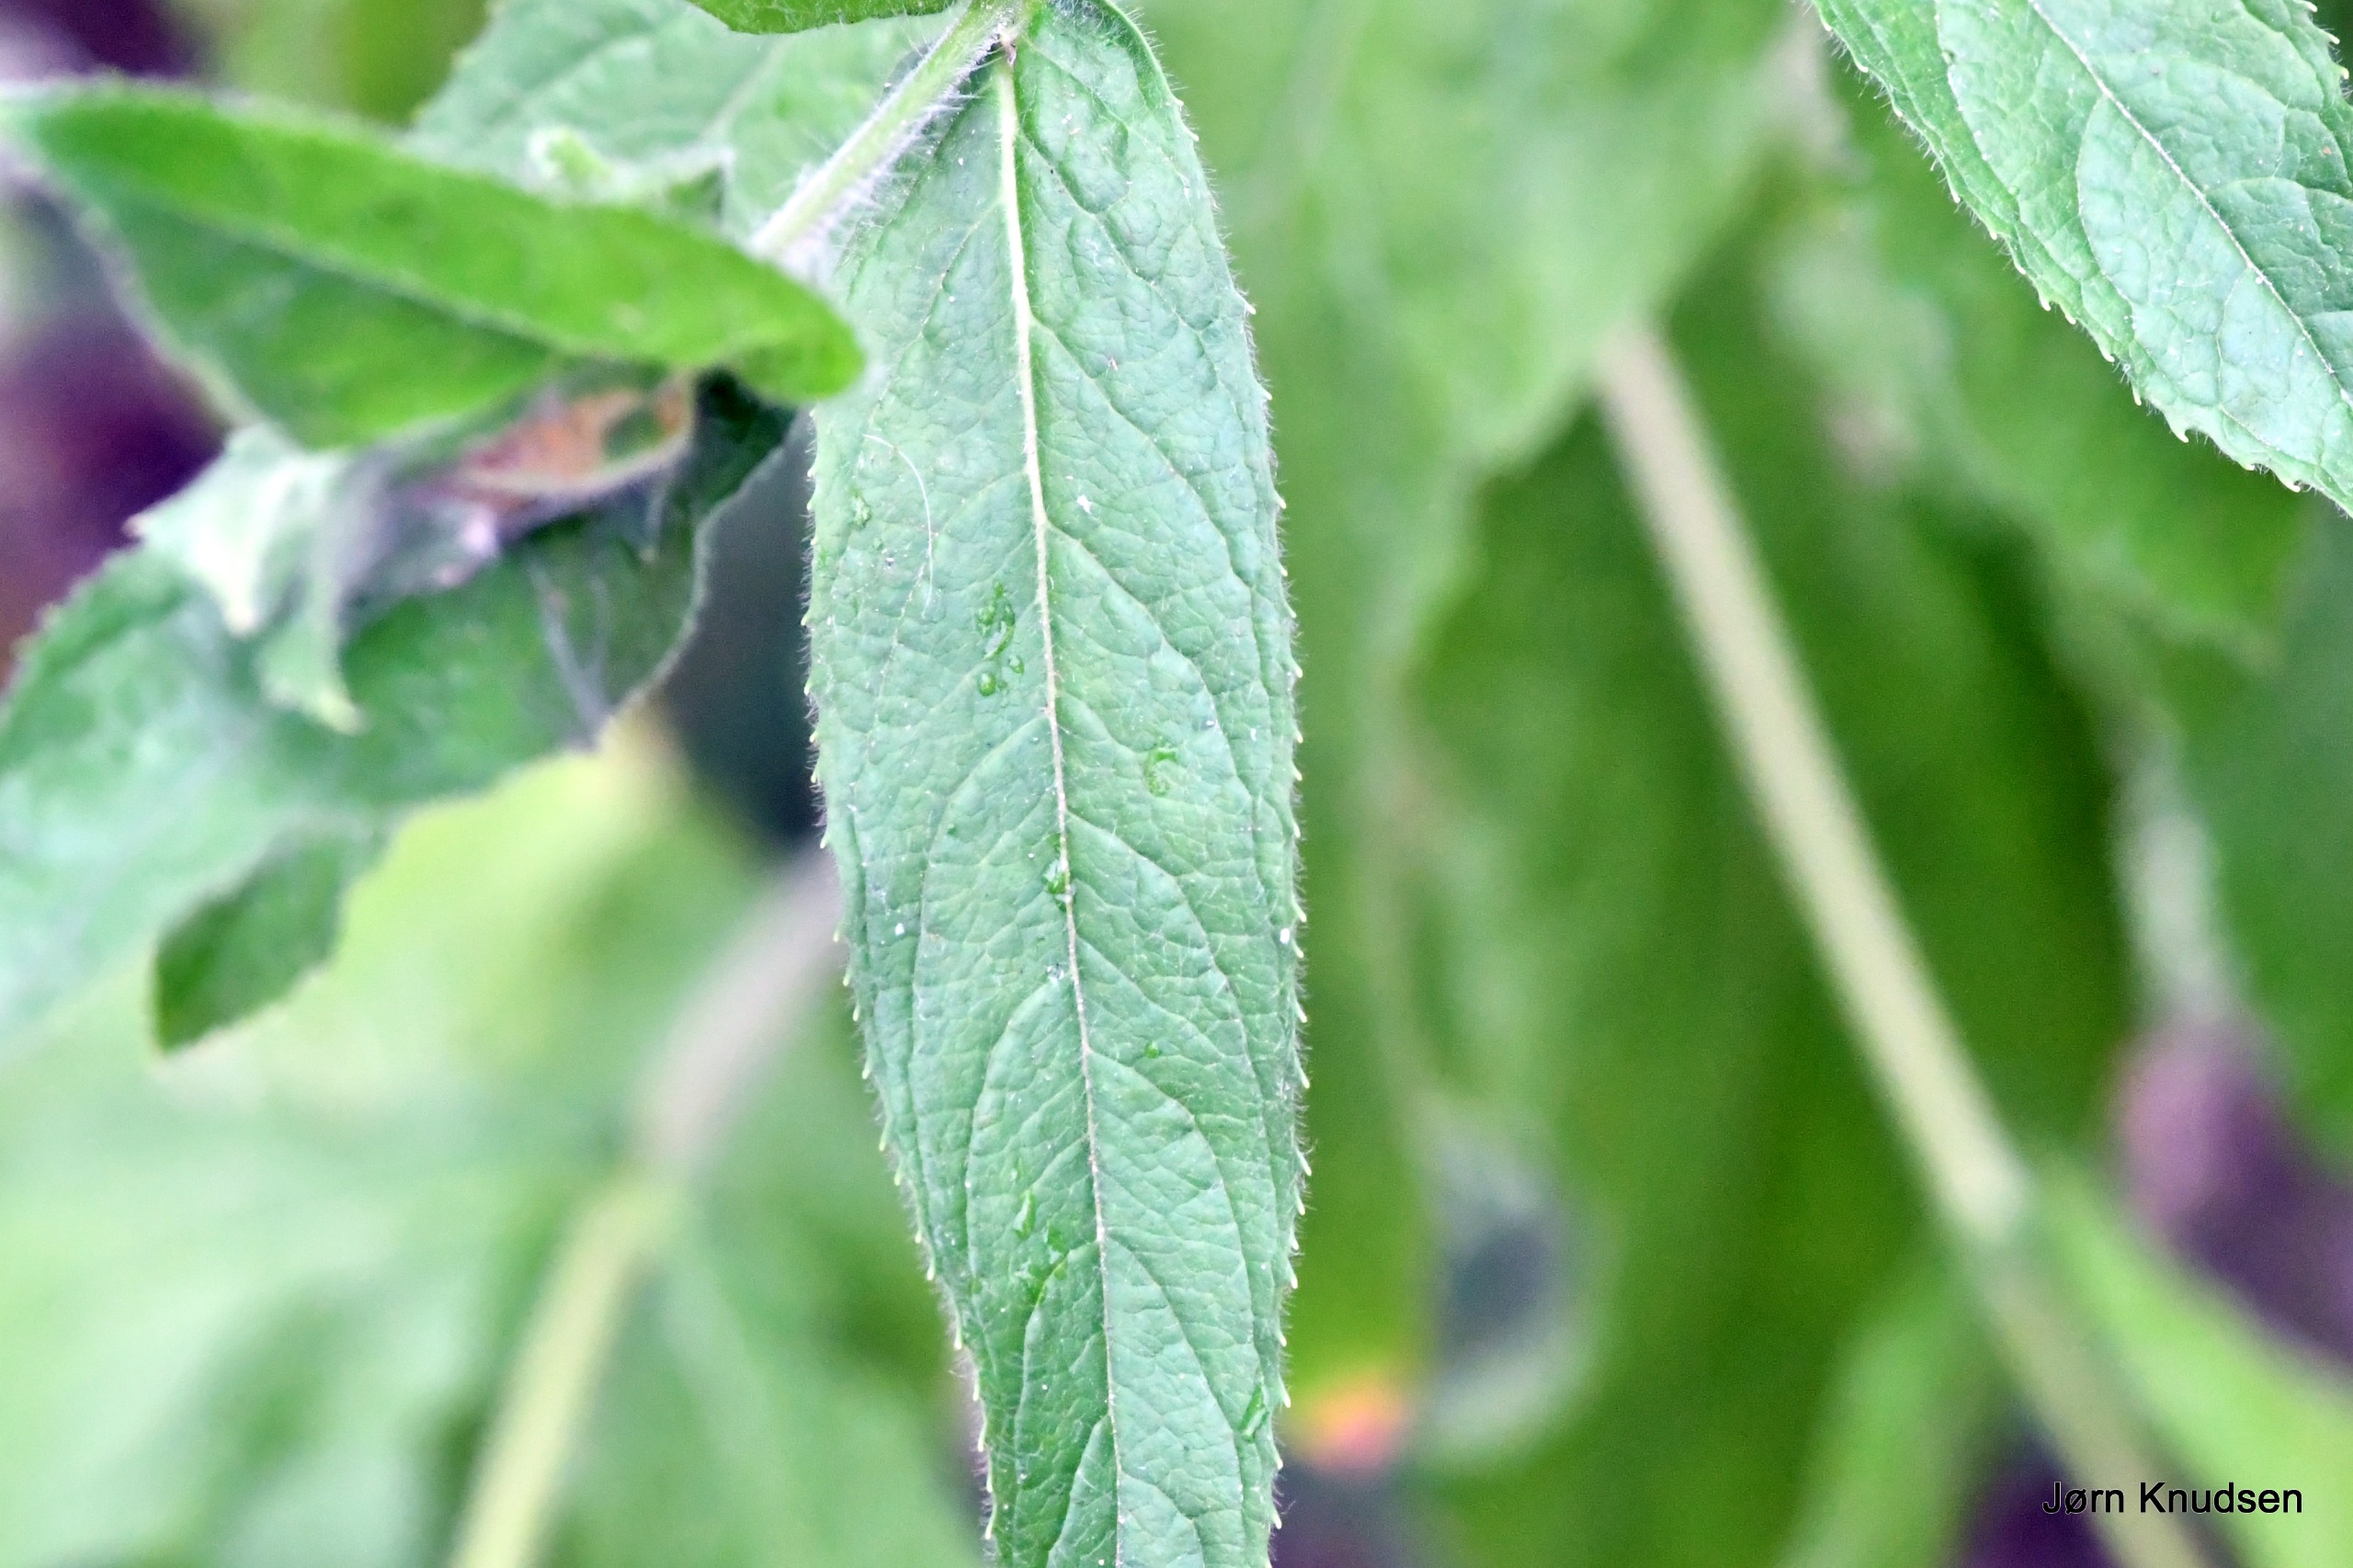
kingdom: Plantae
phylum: Tracheophyta
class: Magnoliopsida
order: Myrtales
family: Onagraceae
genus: Epilobium
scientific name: Epilobium hirsutum
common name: Lådden dueurt
